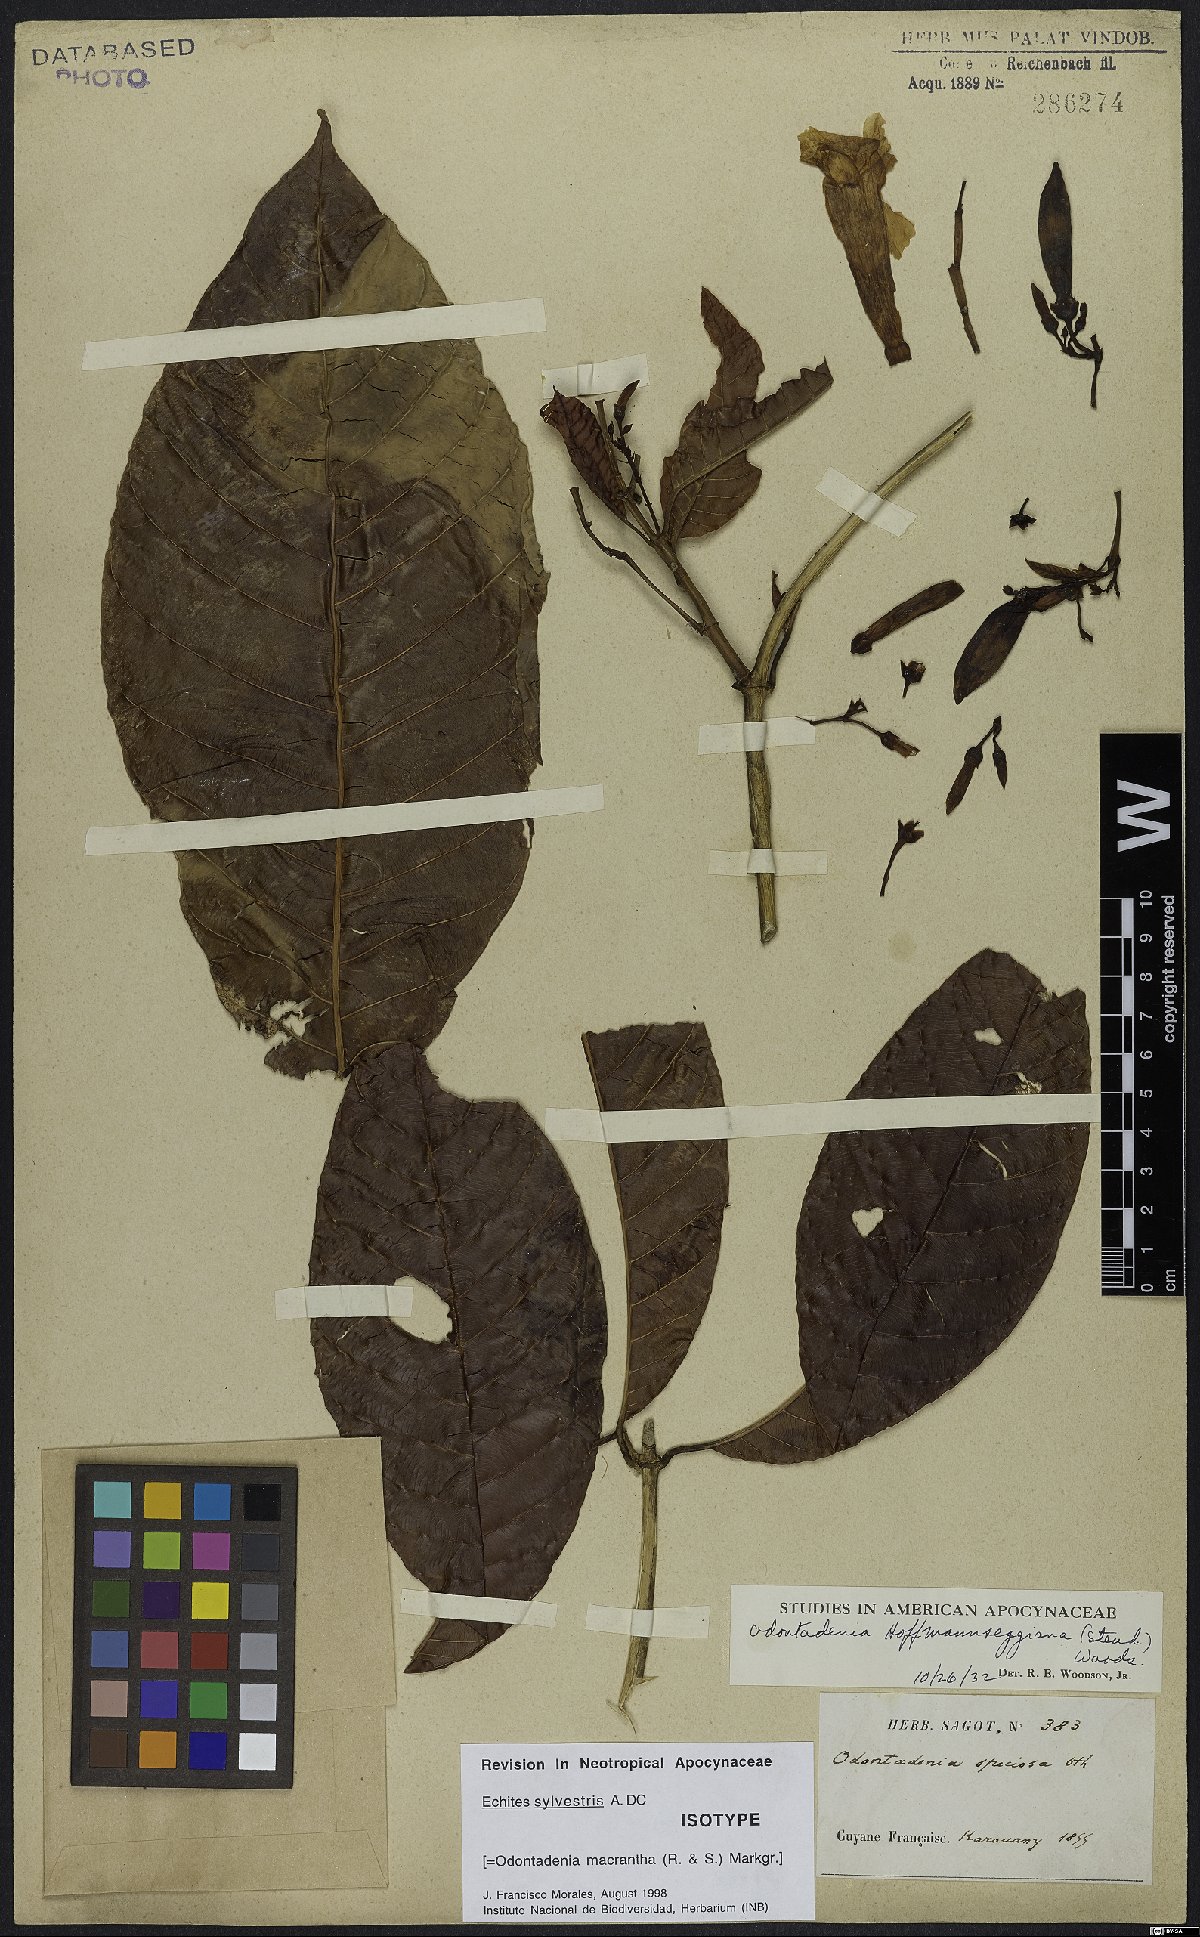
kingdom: Plantae
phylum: Tracheophyta
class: Magnoliopsida
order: Gentianales
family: Apocynaceae
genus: Odontadenia
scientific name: Odontadenia semidigyna
